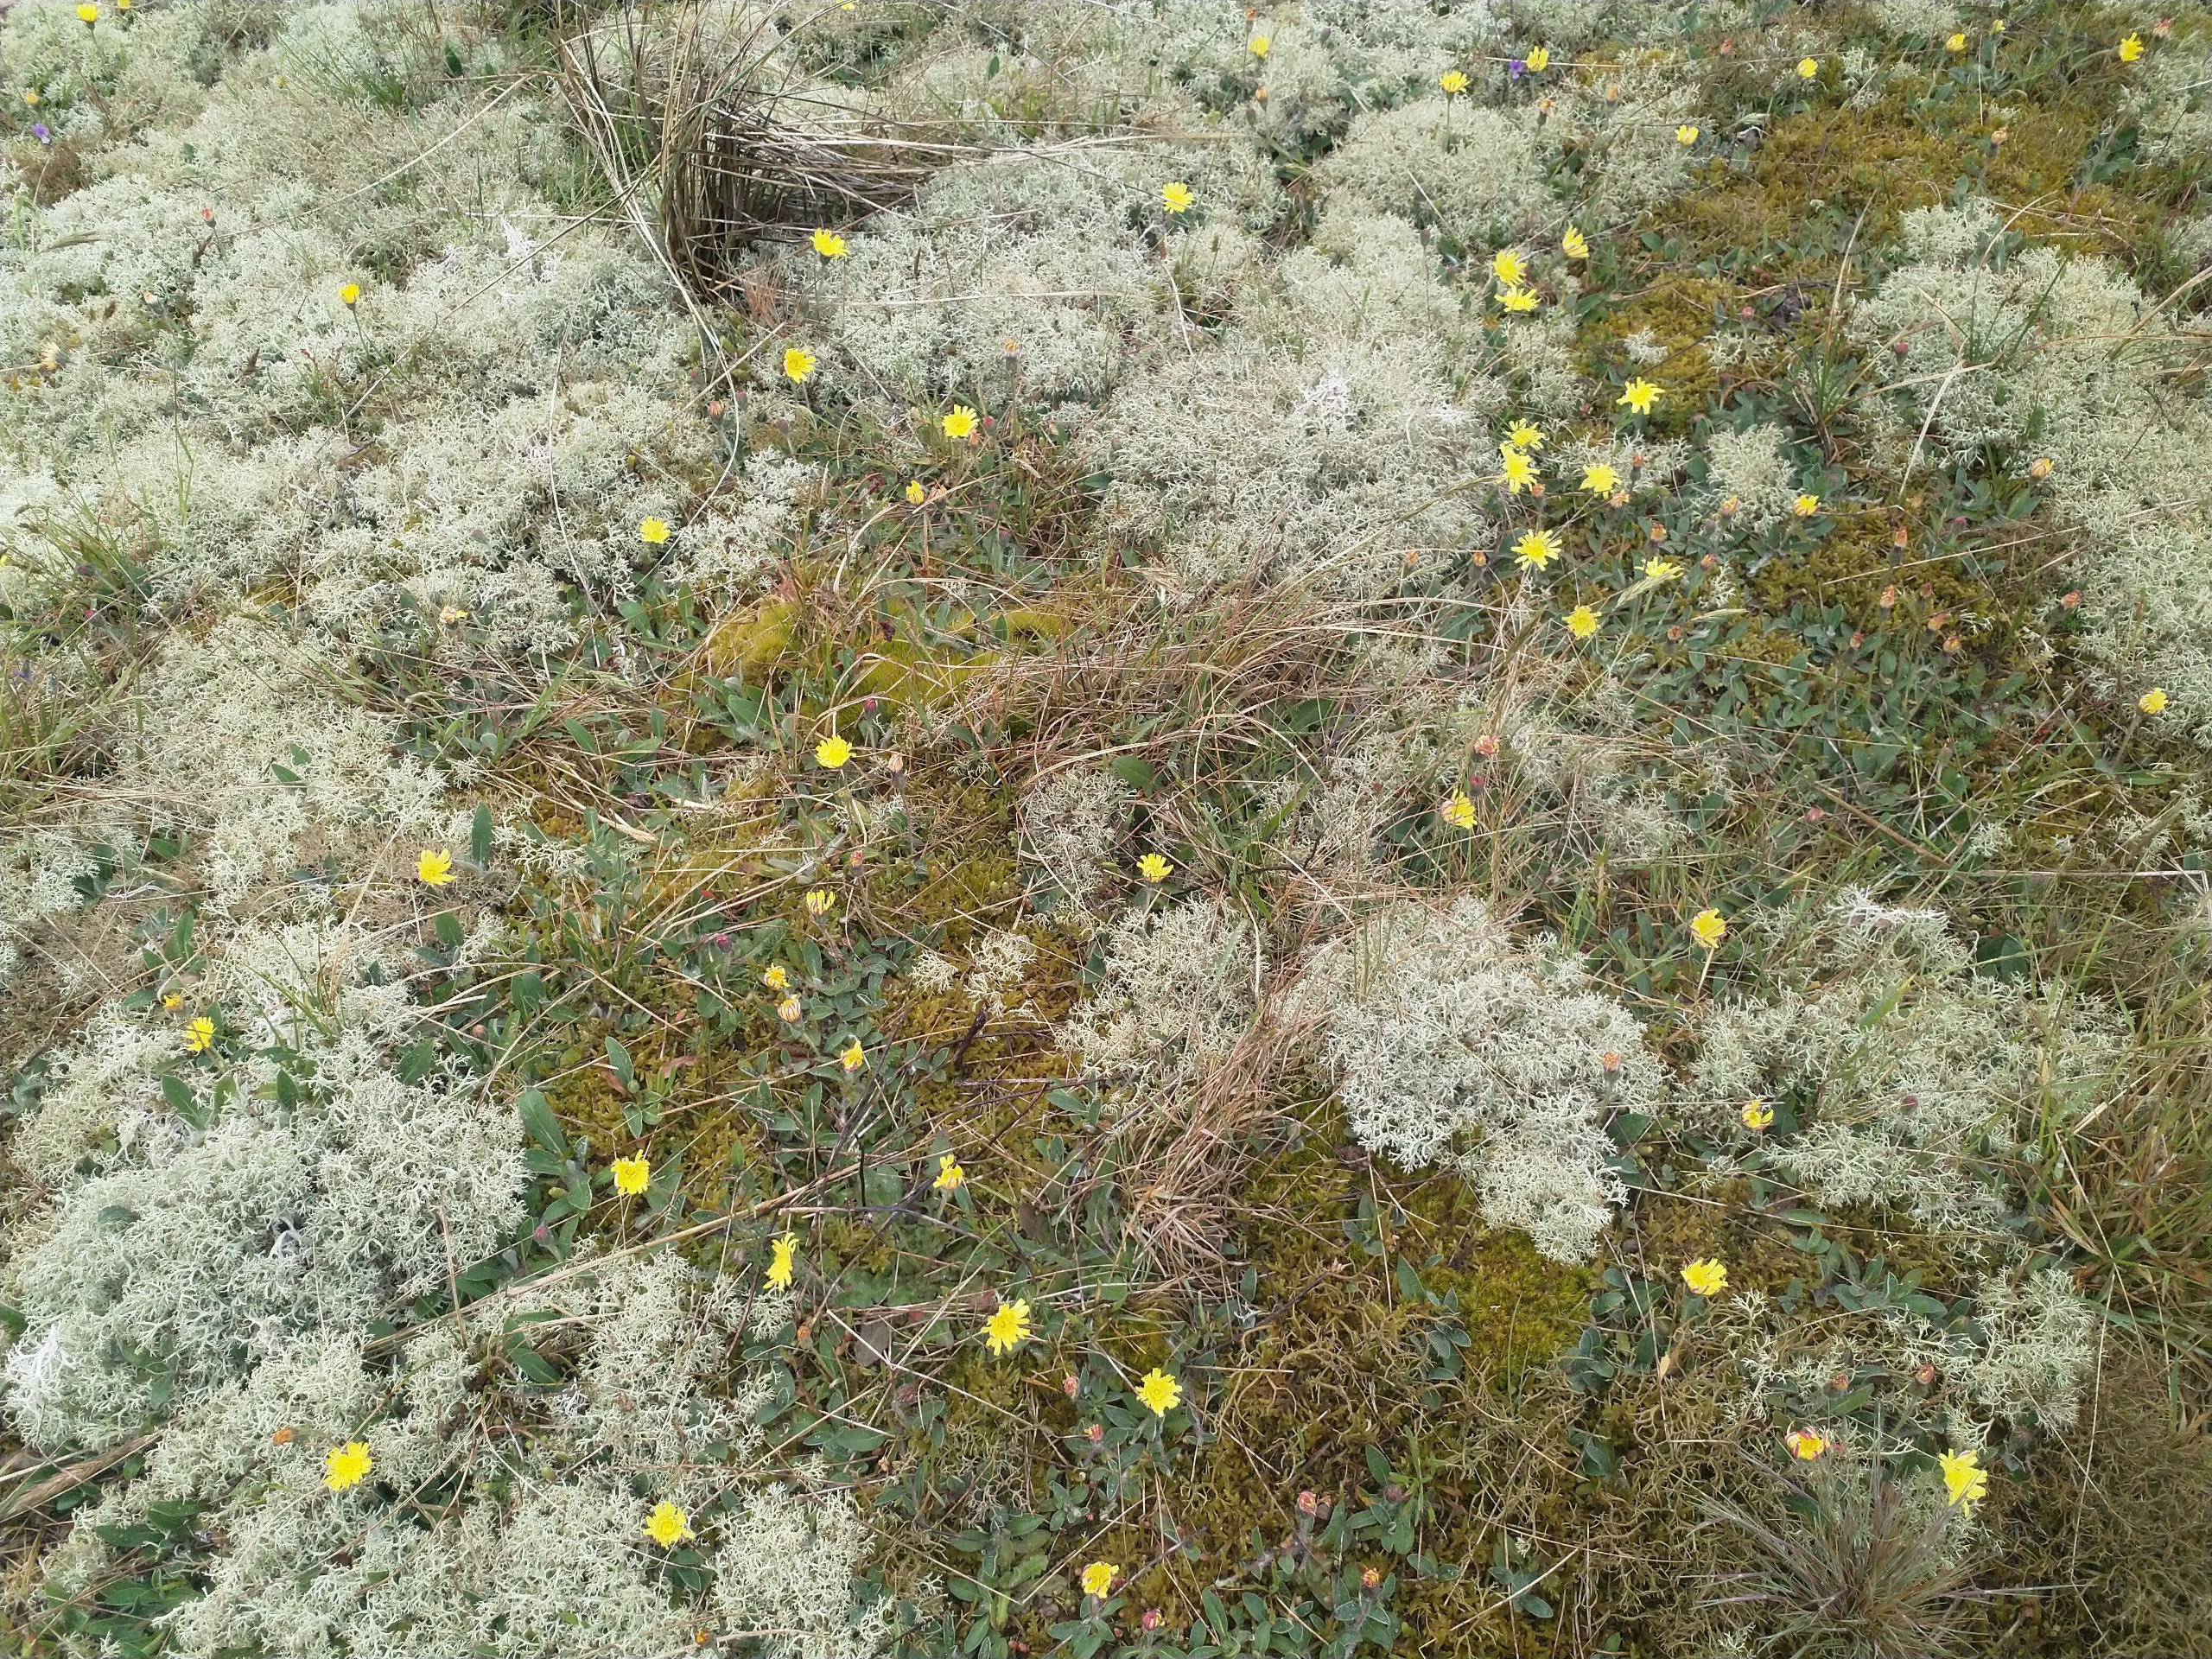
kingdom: Plantae
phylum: Tracheophyta
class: Magnoliopsida
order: Asterales
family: Asteraceae
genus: Pilosella
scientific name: Pilosella officinarum
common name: Håret høgeurt
